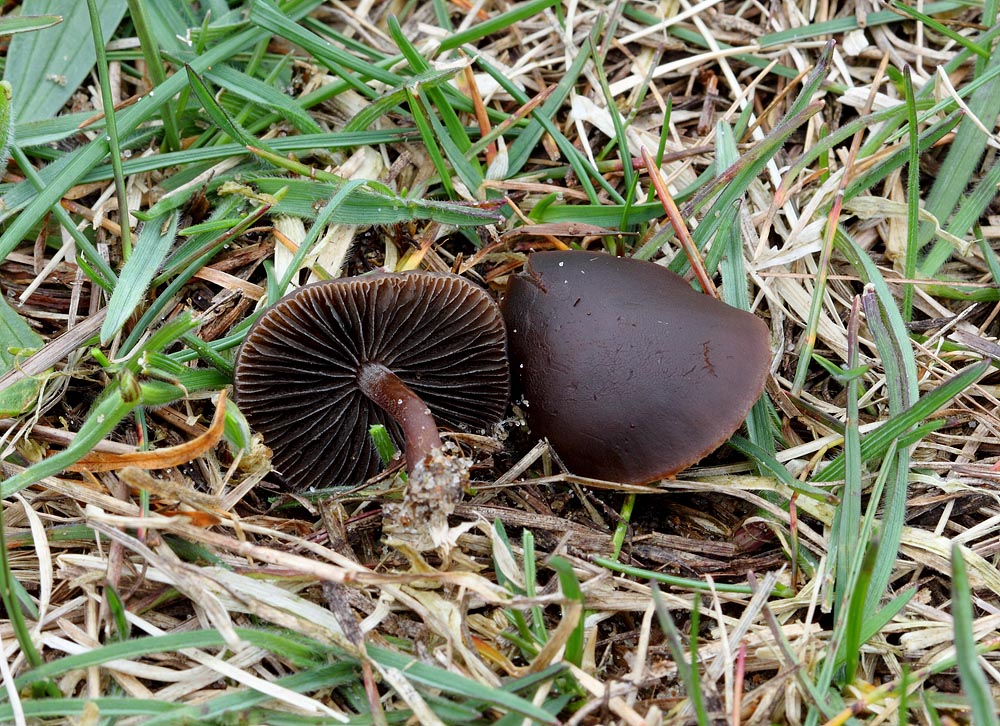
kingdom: Fungi
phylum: Basidiomycota
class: Agaricomycetes
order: Agaricales
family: Bolbitiaceae
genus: Panaeolus
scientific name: Panaeolus fimicola
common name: tidlig glanshat
